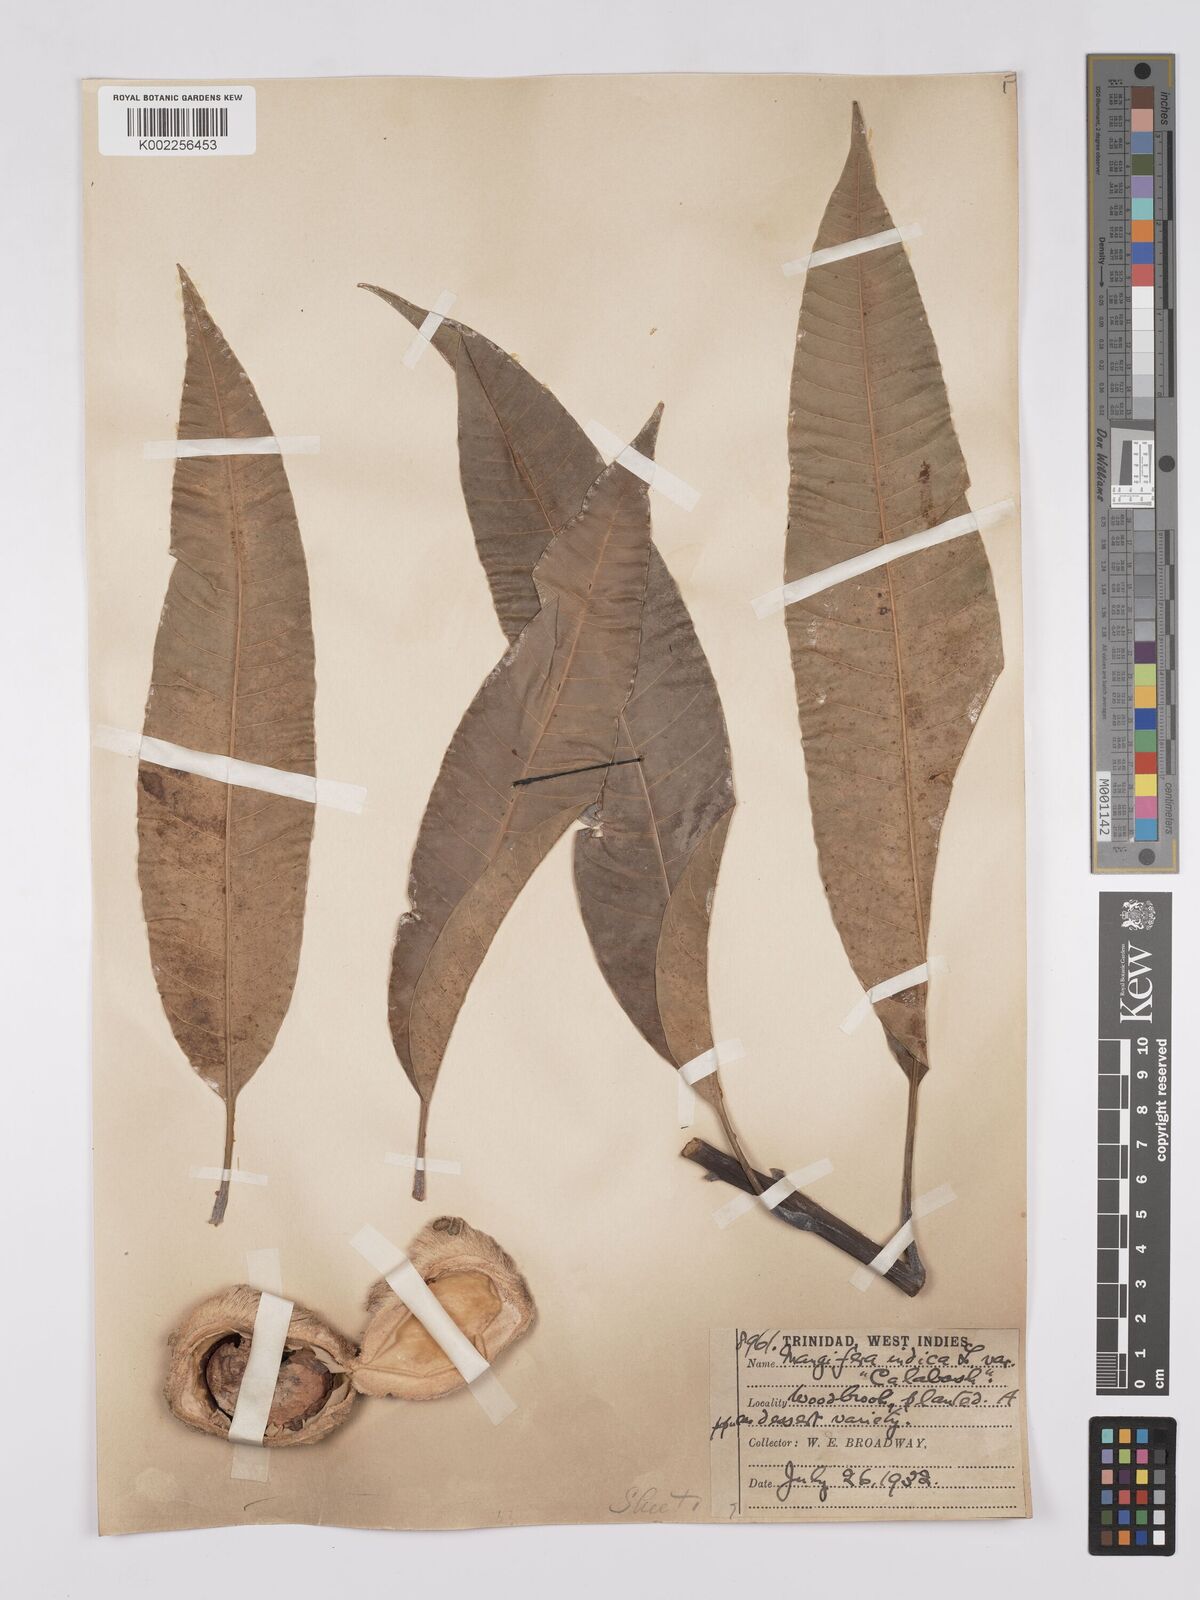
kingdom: Plantae
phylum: Tracheophyta
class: Magnoliopsida
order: Sapindales
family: Anacardiaceae
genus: Mangifera
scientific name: Mangifera indica
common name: Mango
